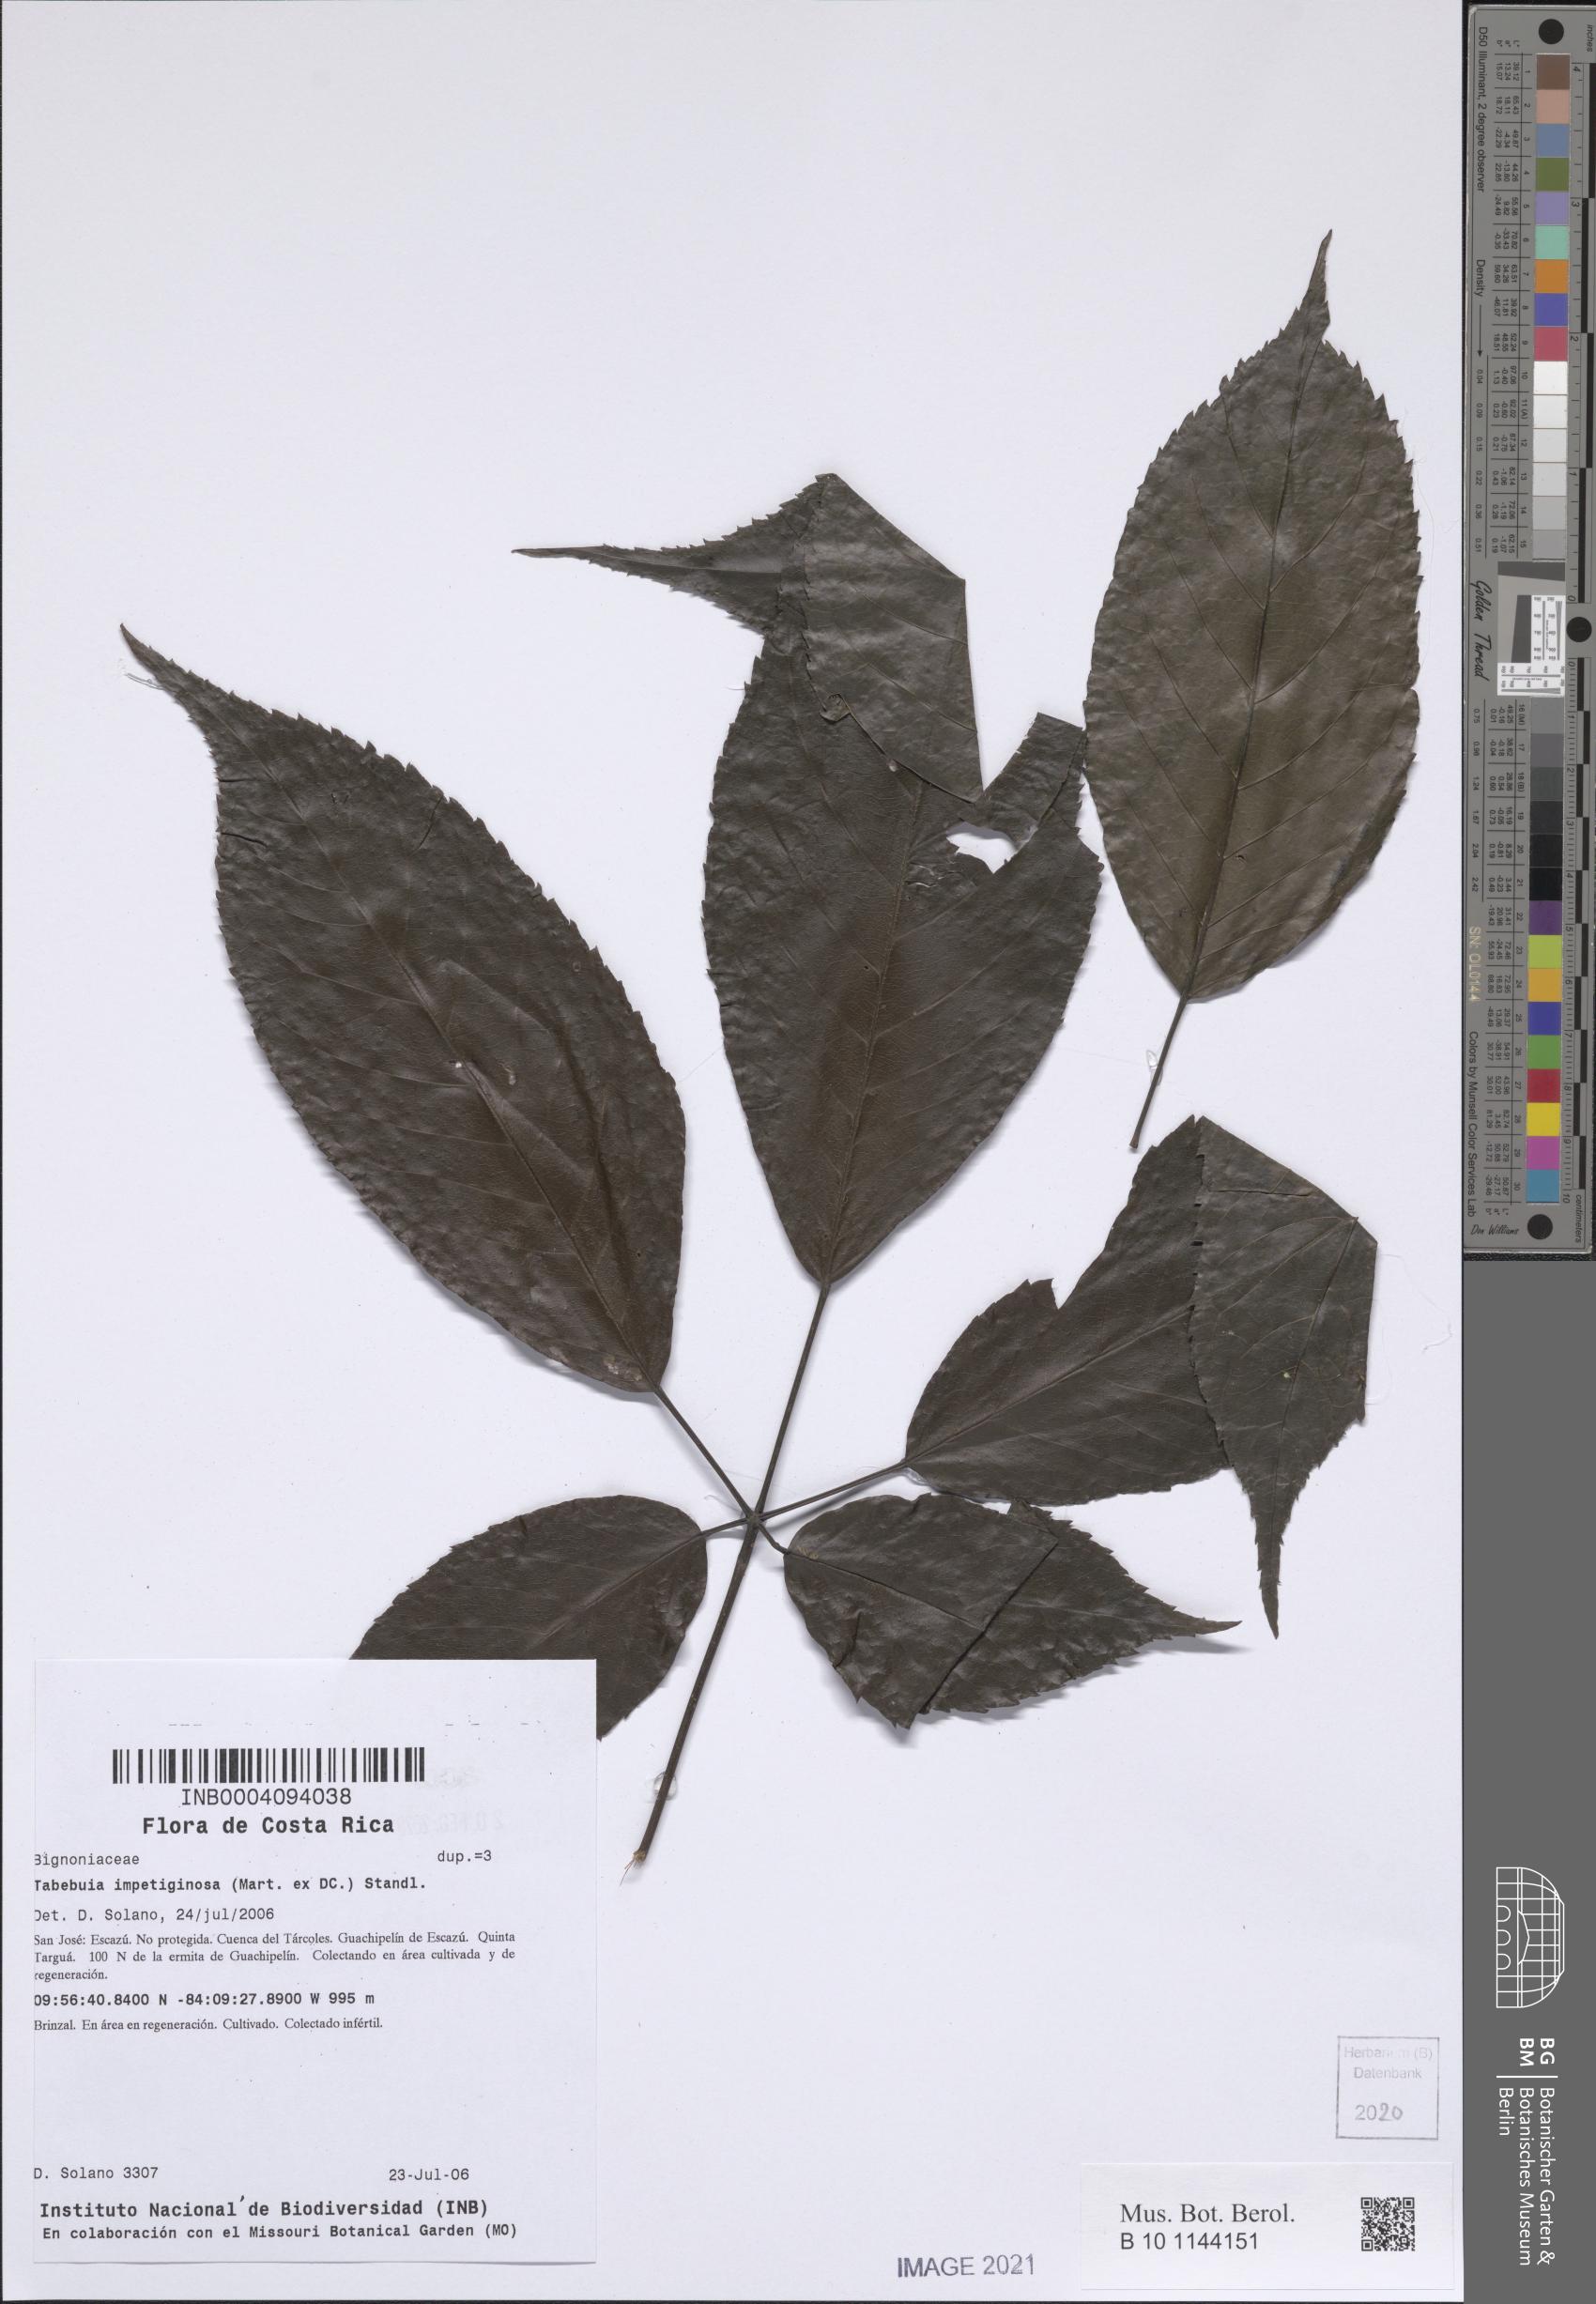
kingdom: Plantae
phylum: Tracheophyta
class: Magnoliopsida
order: Lamiales
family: Bignoniaceae
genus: Handroanthus
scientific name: Handroanthus impetiginosum
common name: Pink trumpet tree
